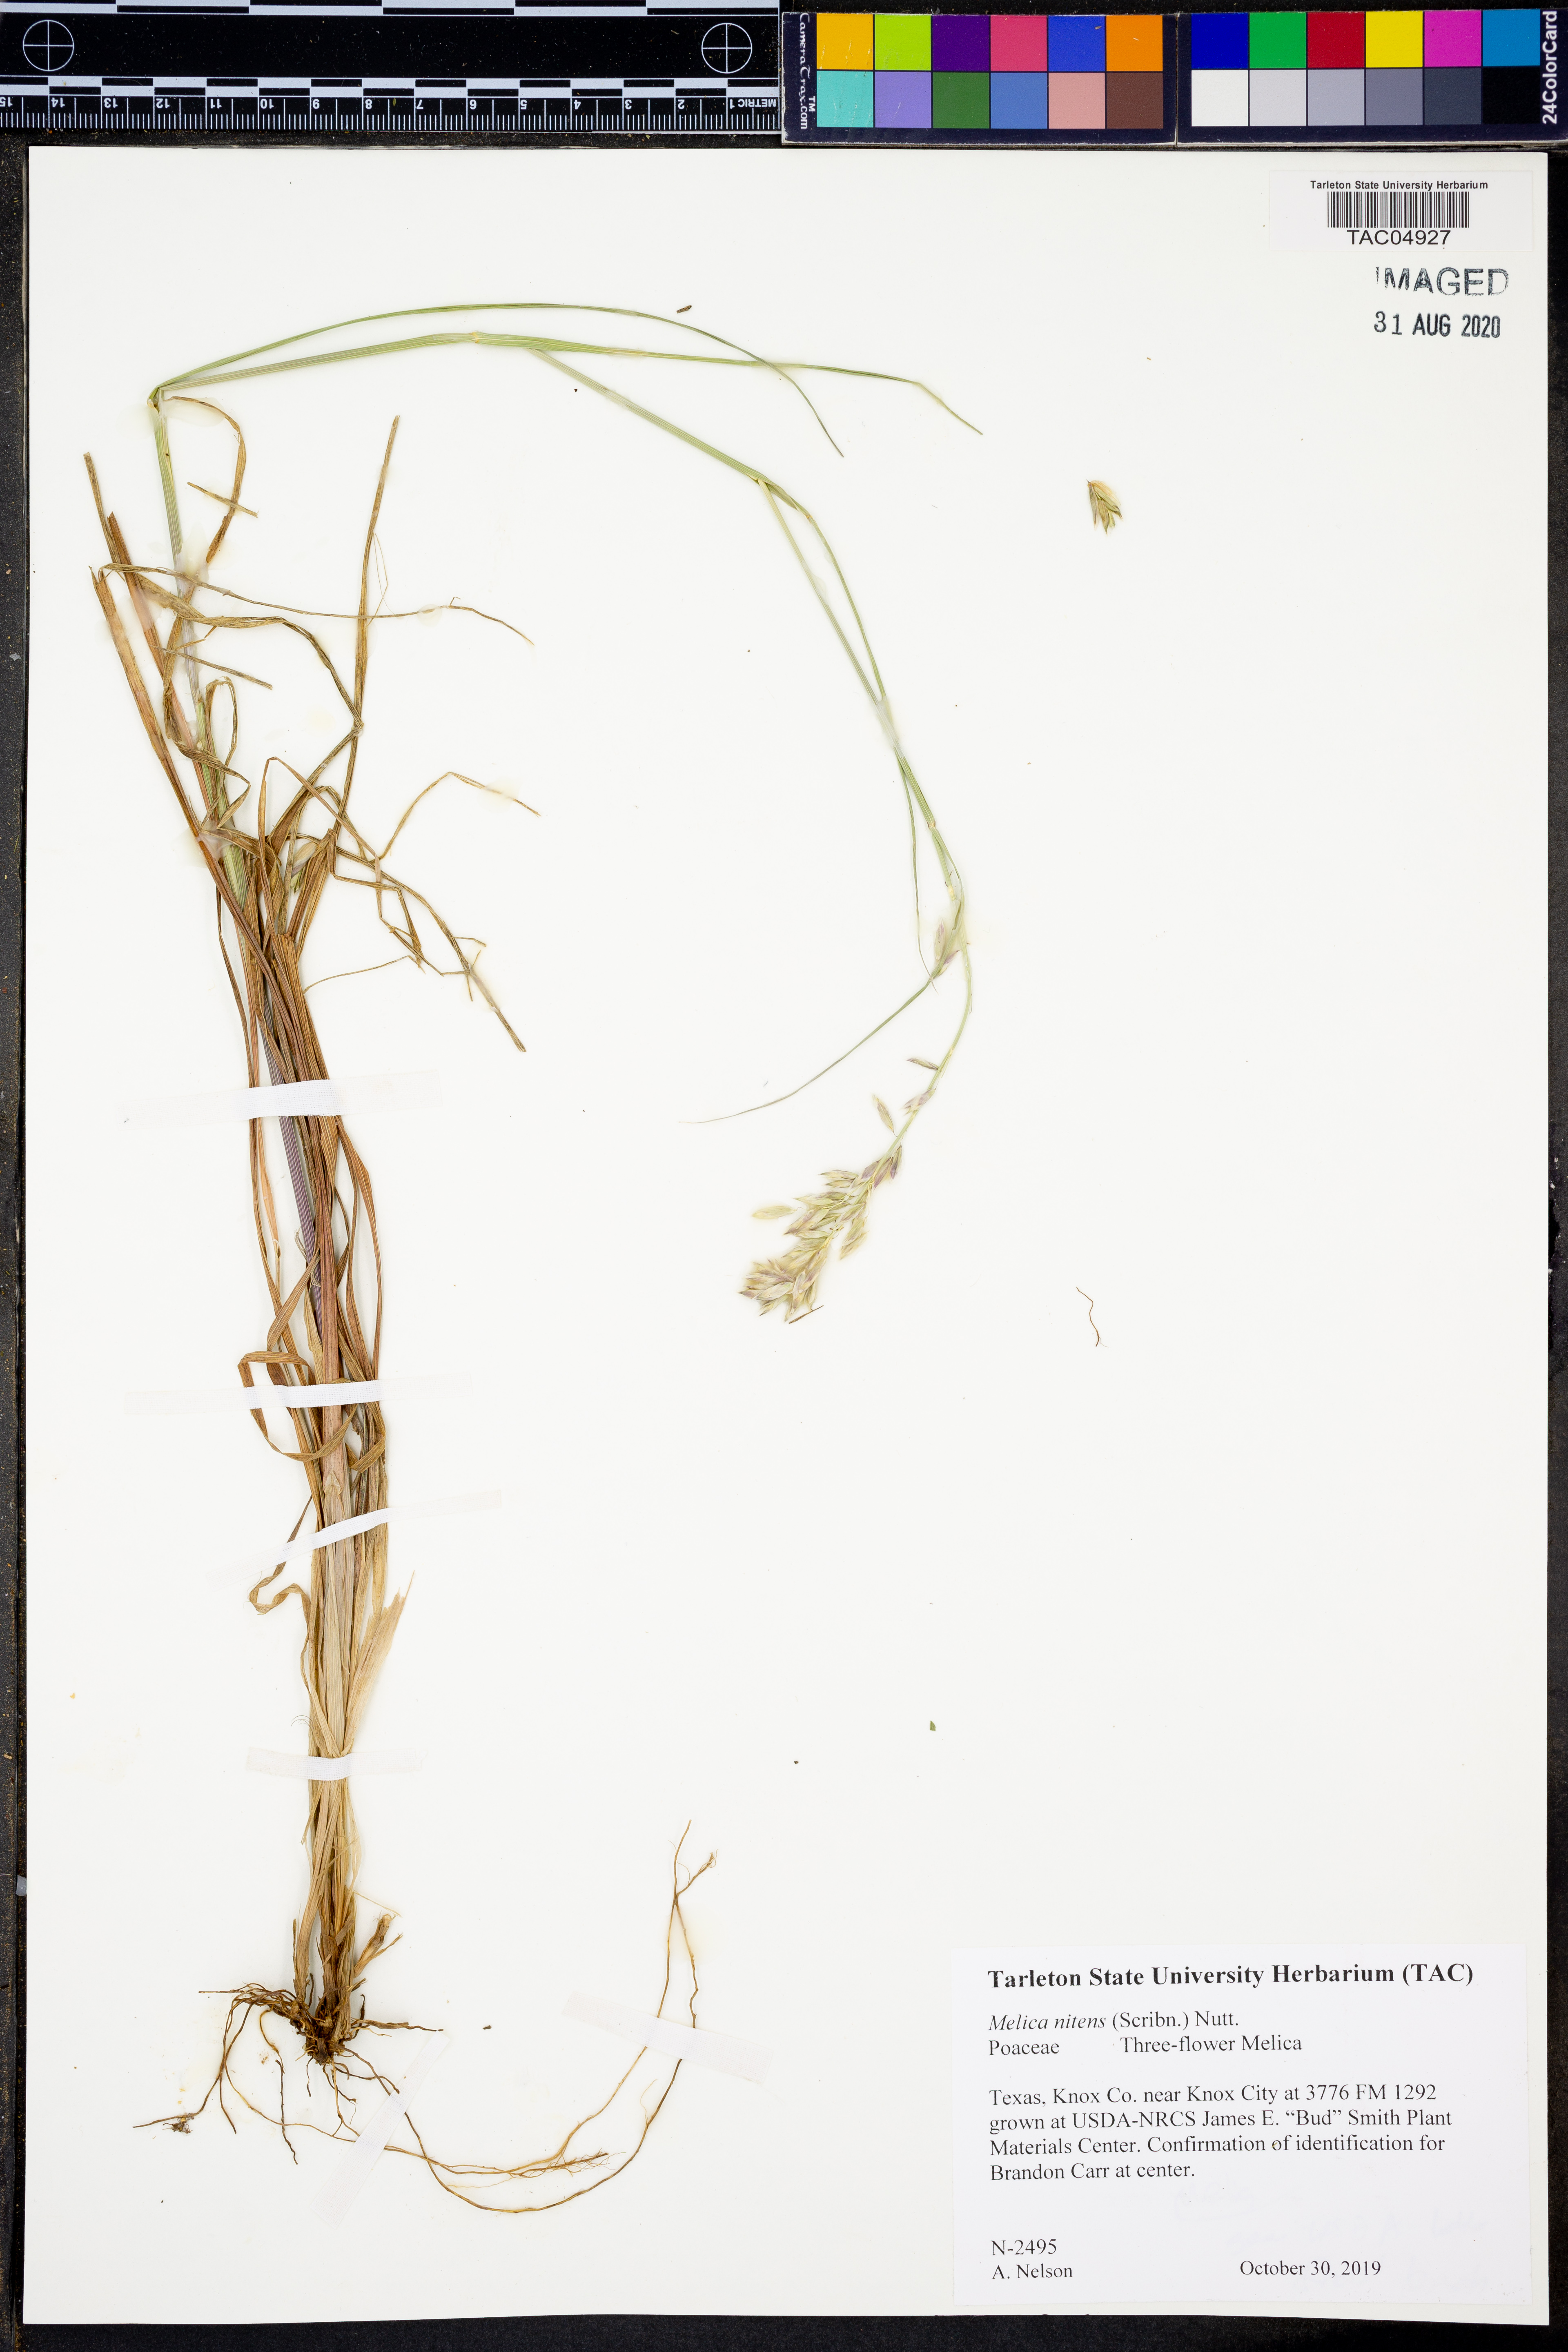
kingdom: Plantae
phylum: Tracheophyta
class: Liliopsida
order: Poales
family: Poaceae
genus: Melica
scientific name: Melica nitens
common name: Three-flower melic
